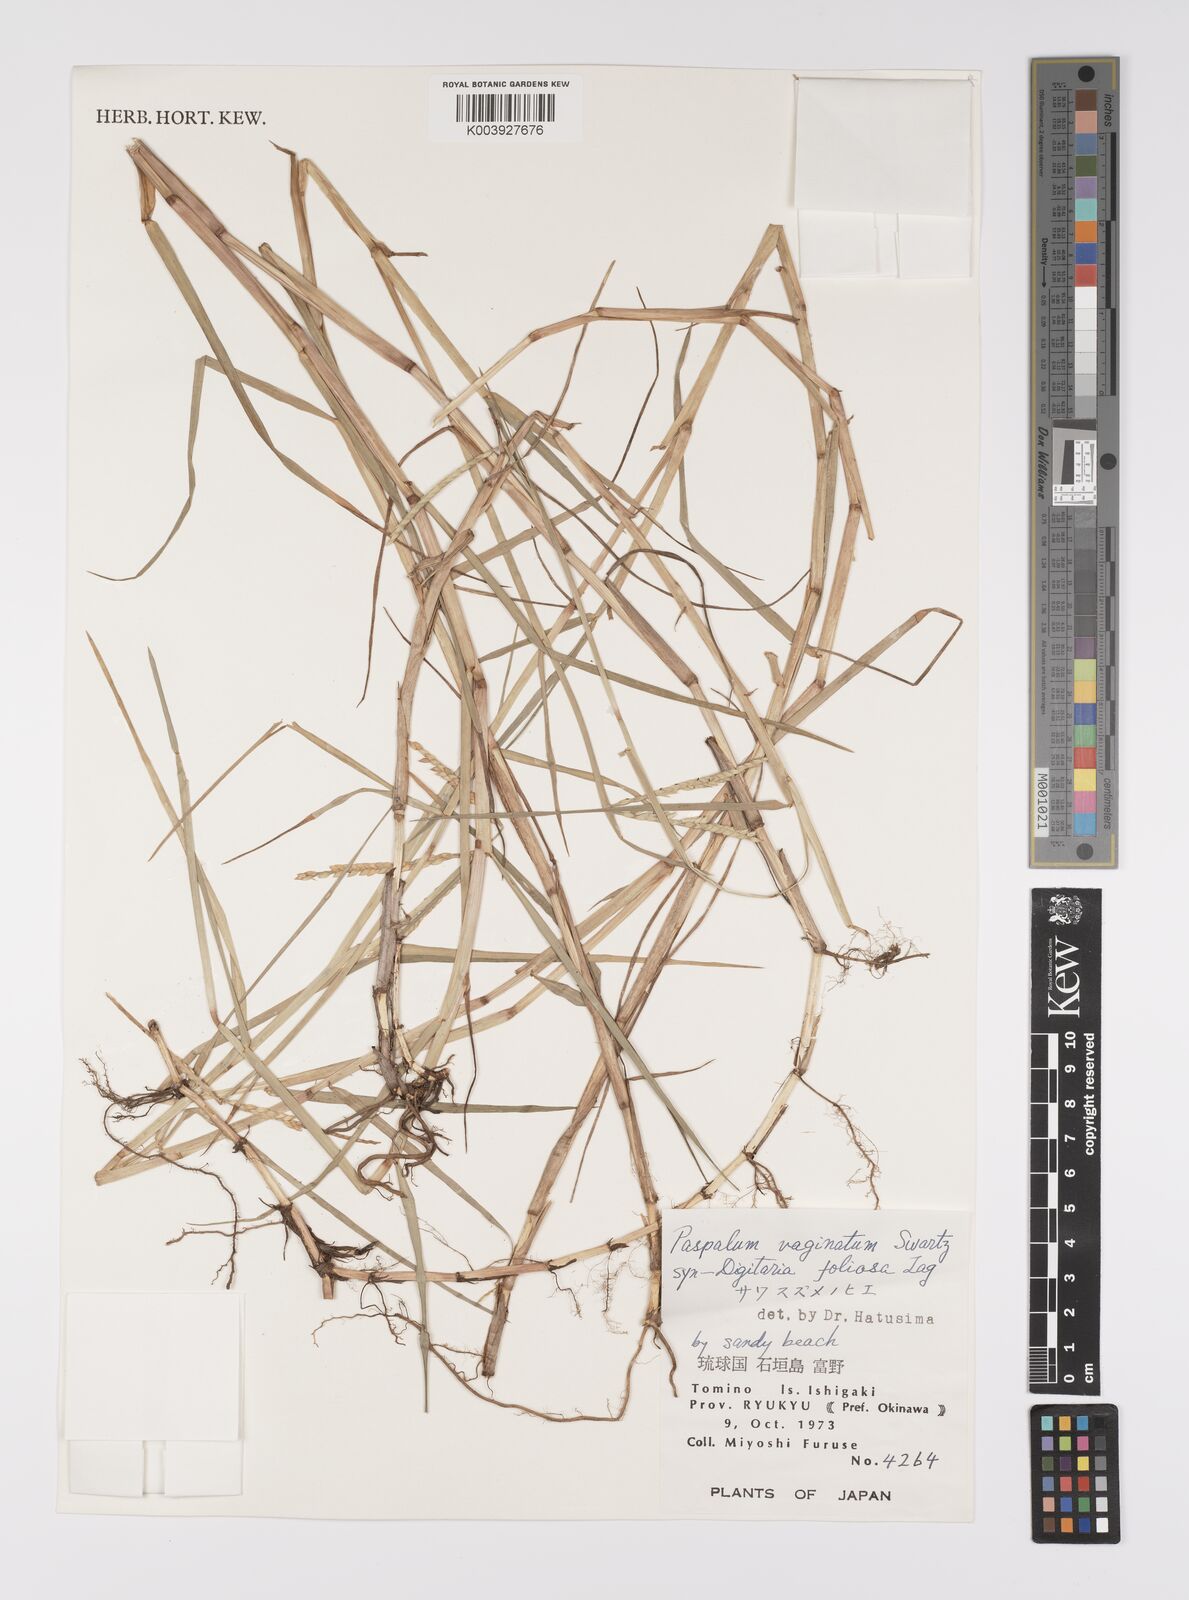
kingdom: Plantae
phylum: Tracheophyta
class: Liliopsida
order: Poales
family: Poaceae
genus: Paspalum
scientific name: Paspalum vaginatum
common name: Seashore paspalum
